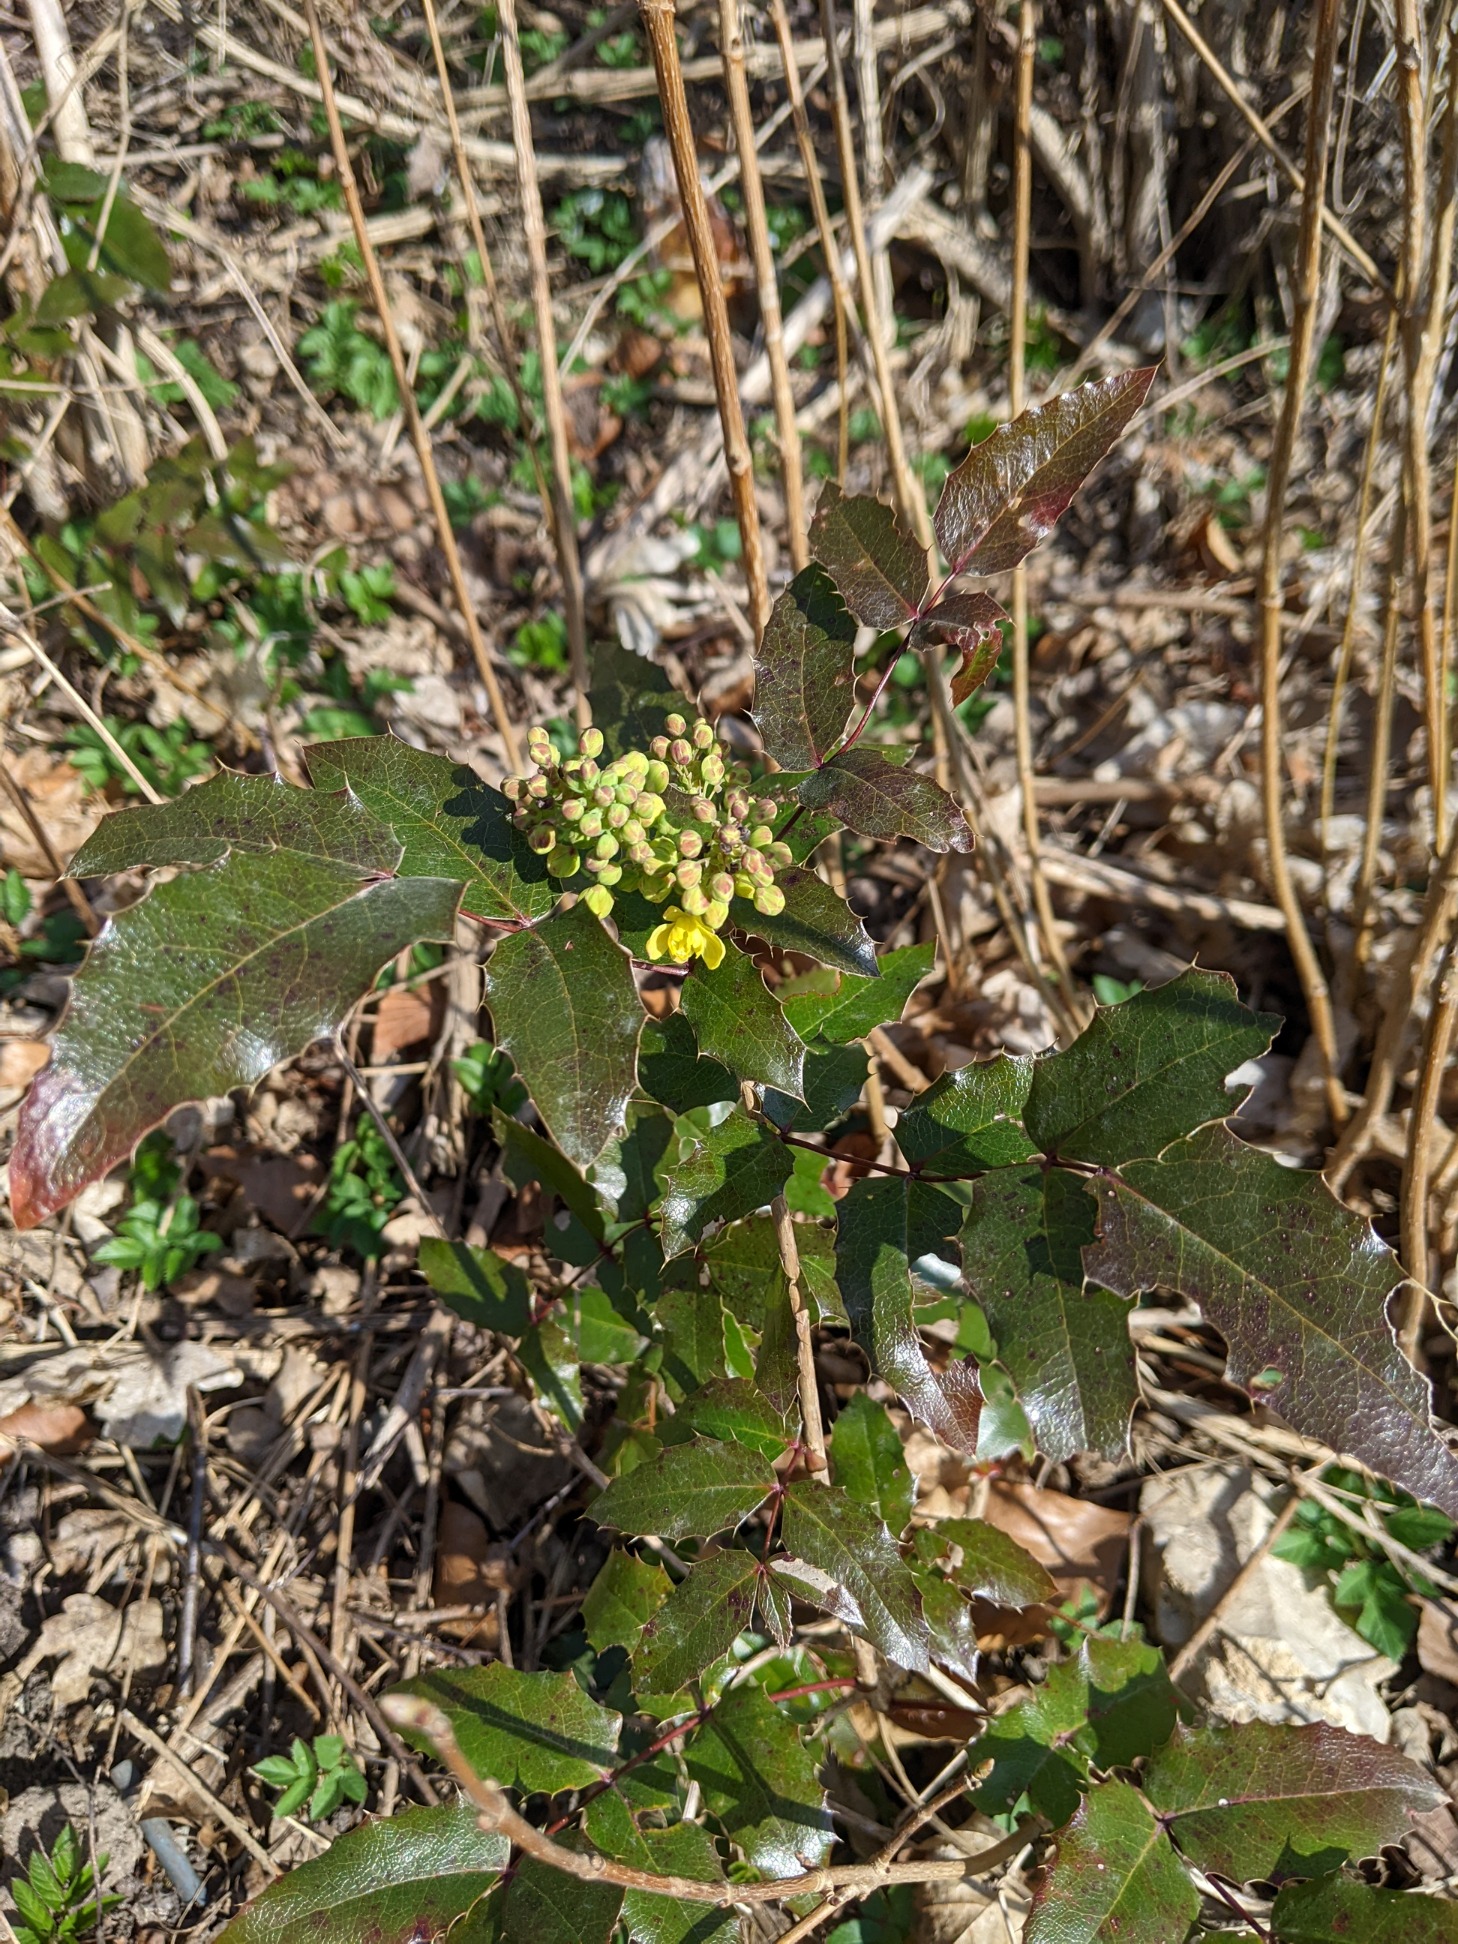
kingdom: Plantae
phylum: Tracheophyta
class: Magnoliopsida
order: Ranunculales
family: Berberidaceae
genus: Mahonia
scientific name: Mahonia aquifolium
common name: Almindelig mahonie
